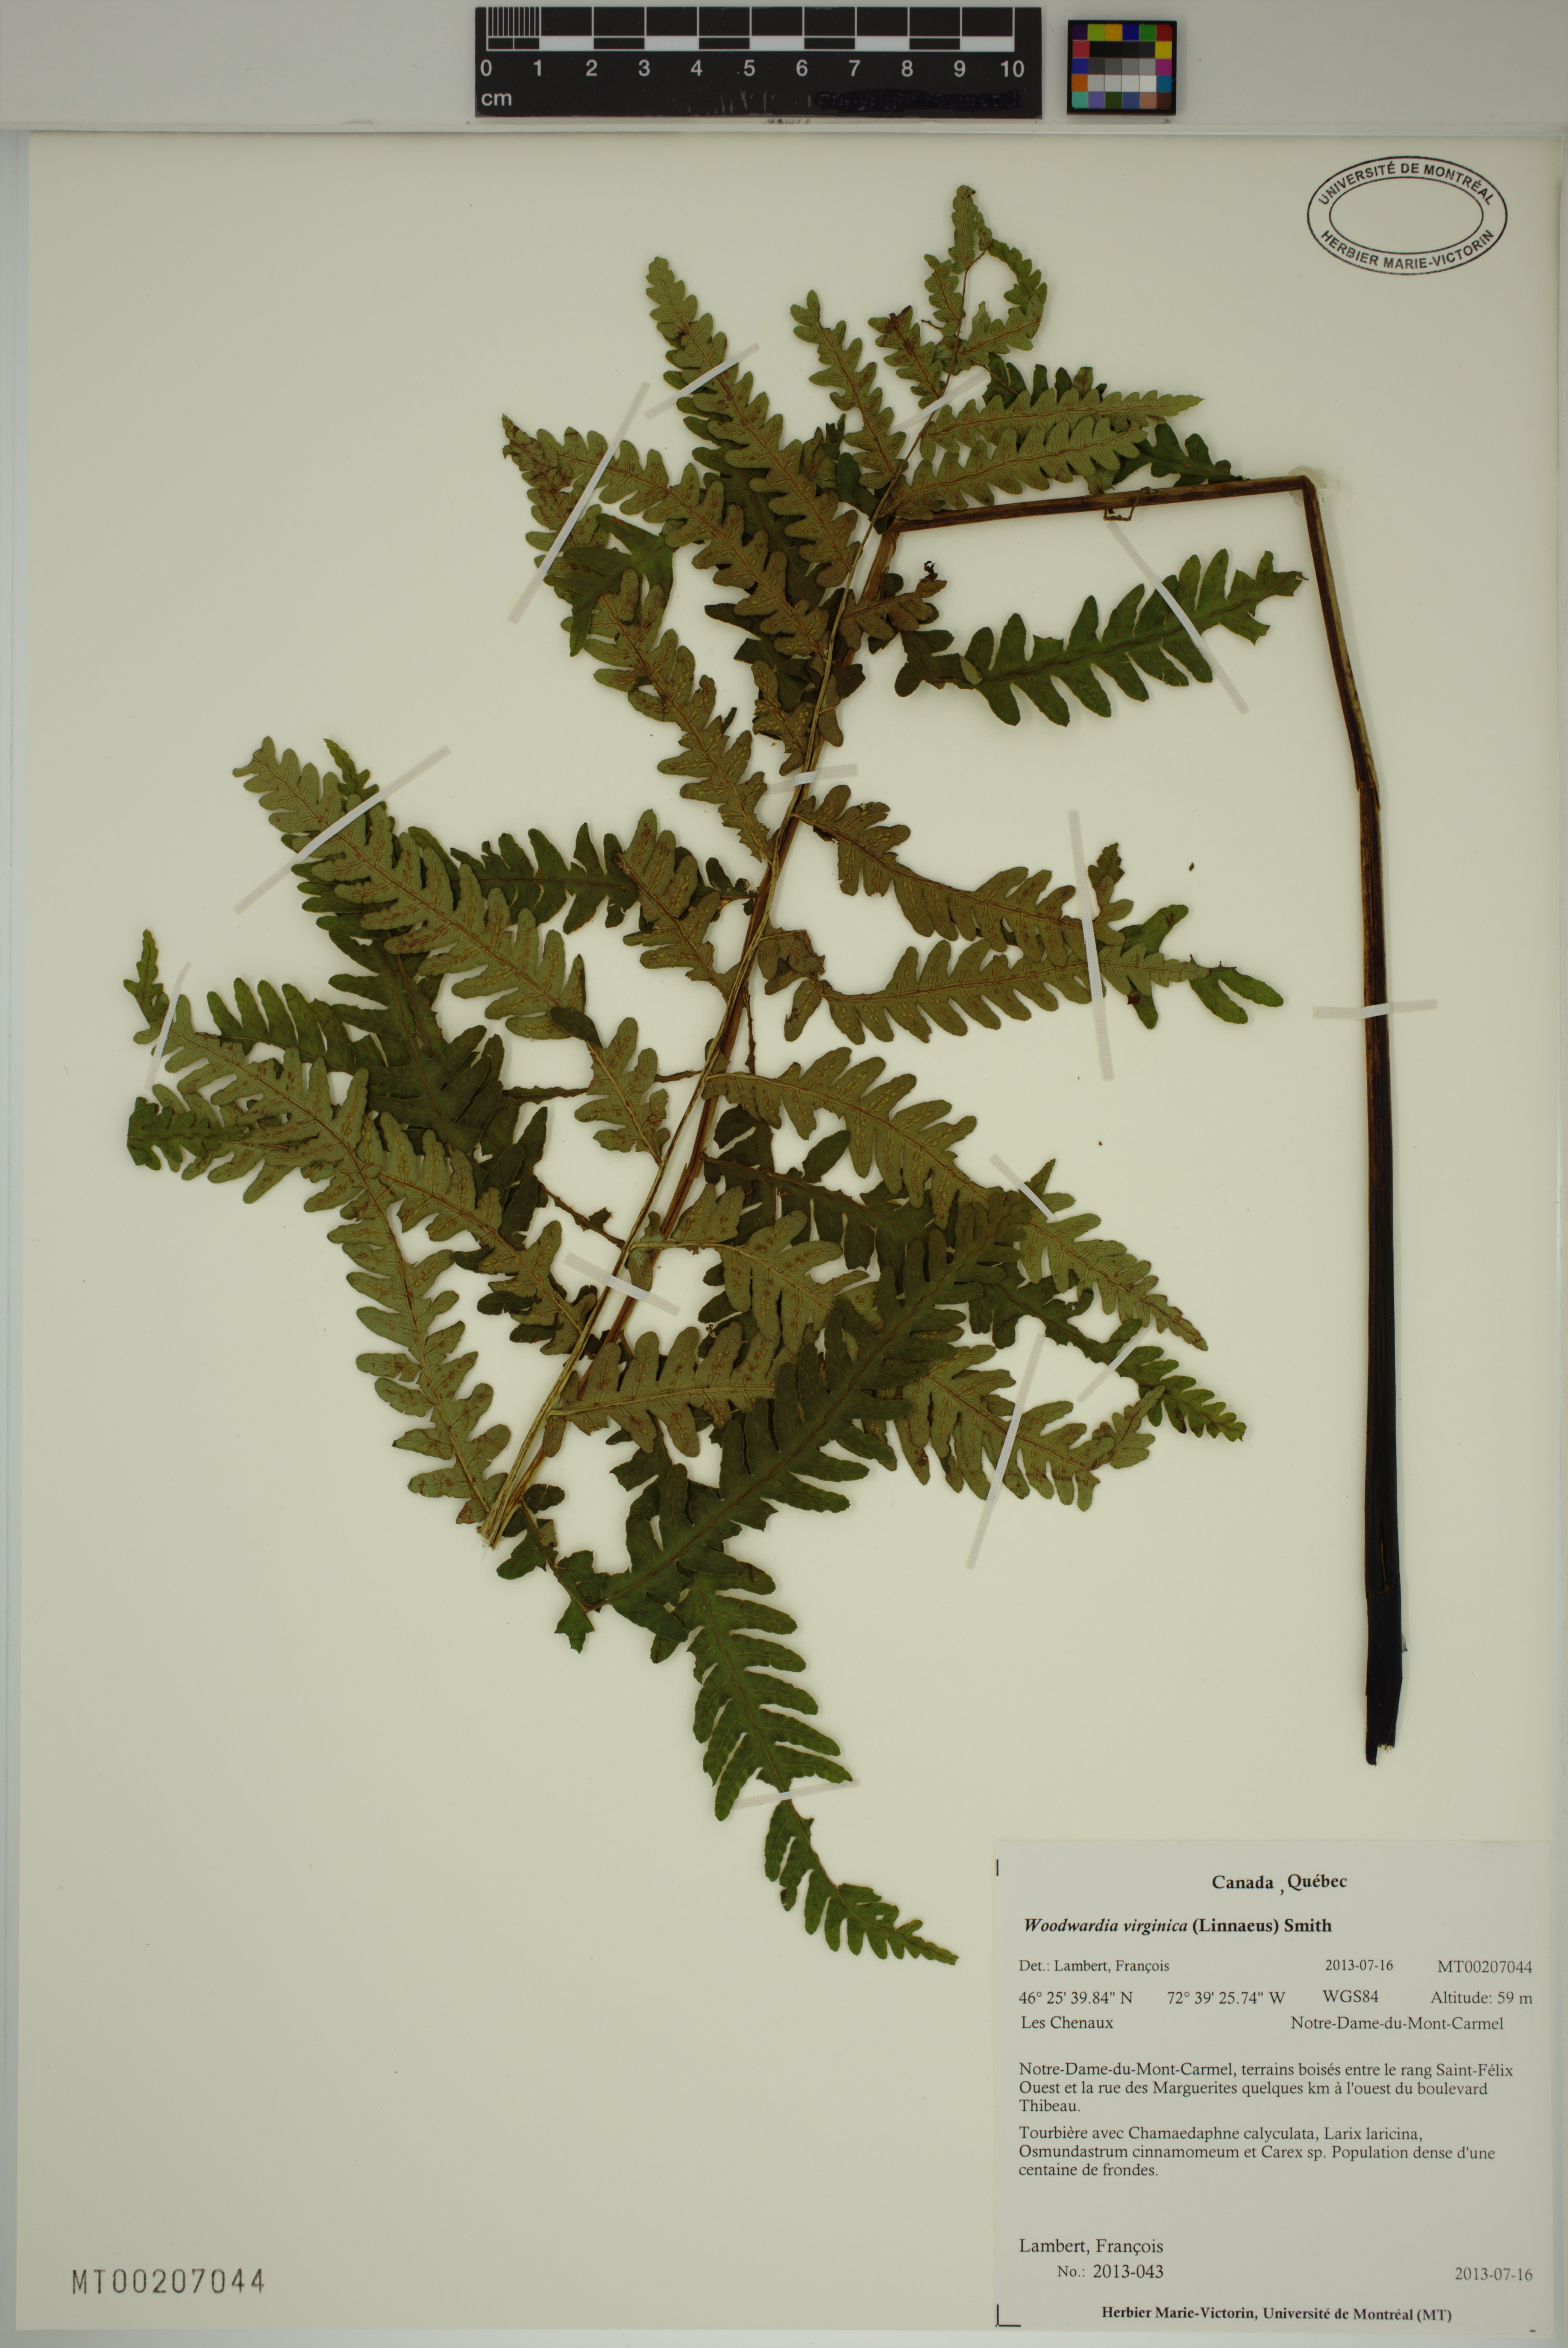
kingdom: Plantae
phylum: Tracheophyta
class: Polypodiopsida
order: Polypodiales
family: Blechnaceae
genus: Anchistea
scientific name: Anchistea virginica
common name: Virginia chain fern
